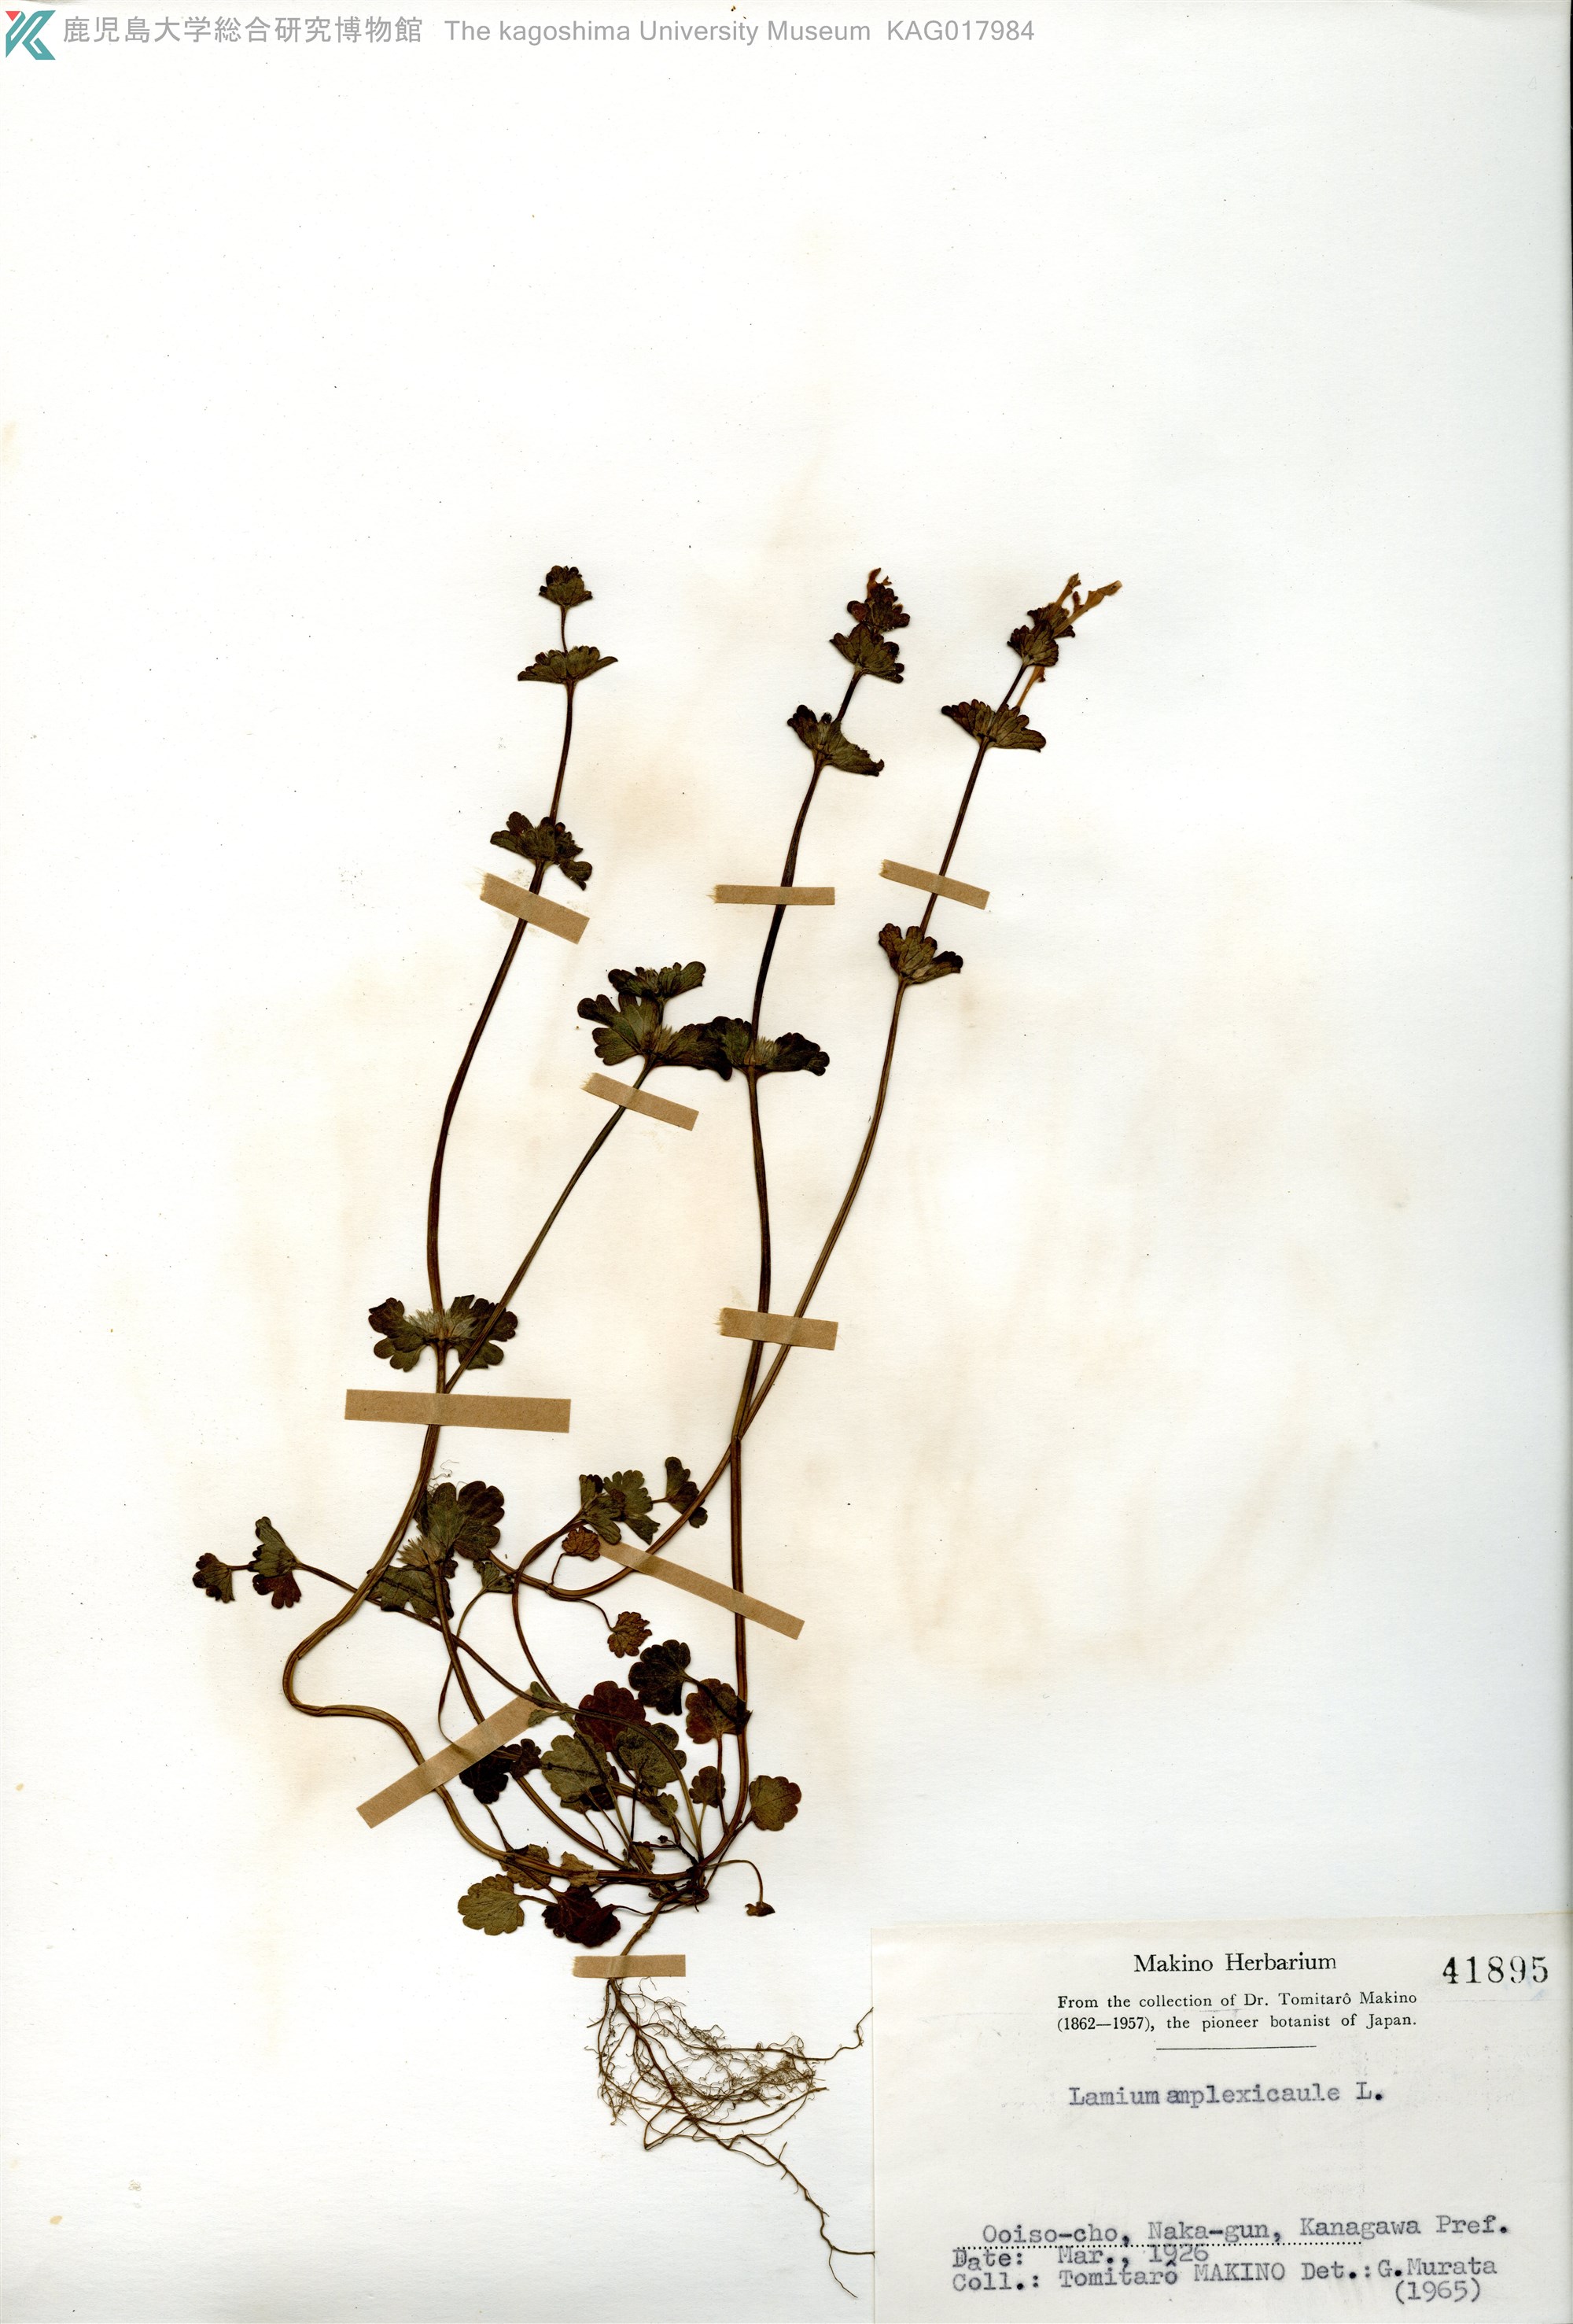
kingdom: Plantae
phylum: Tracheophyta
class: Magnoliopsida
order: Lamiales
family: Lamiaceae
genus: Lamium
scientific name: Lamium amplexicaule
